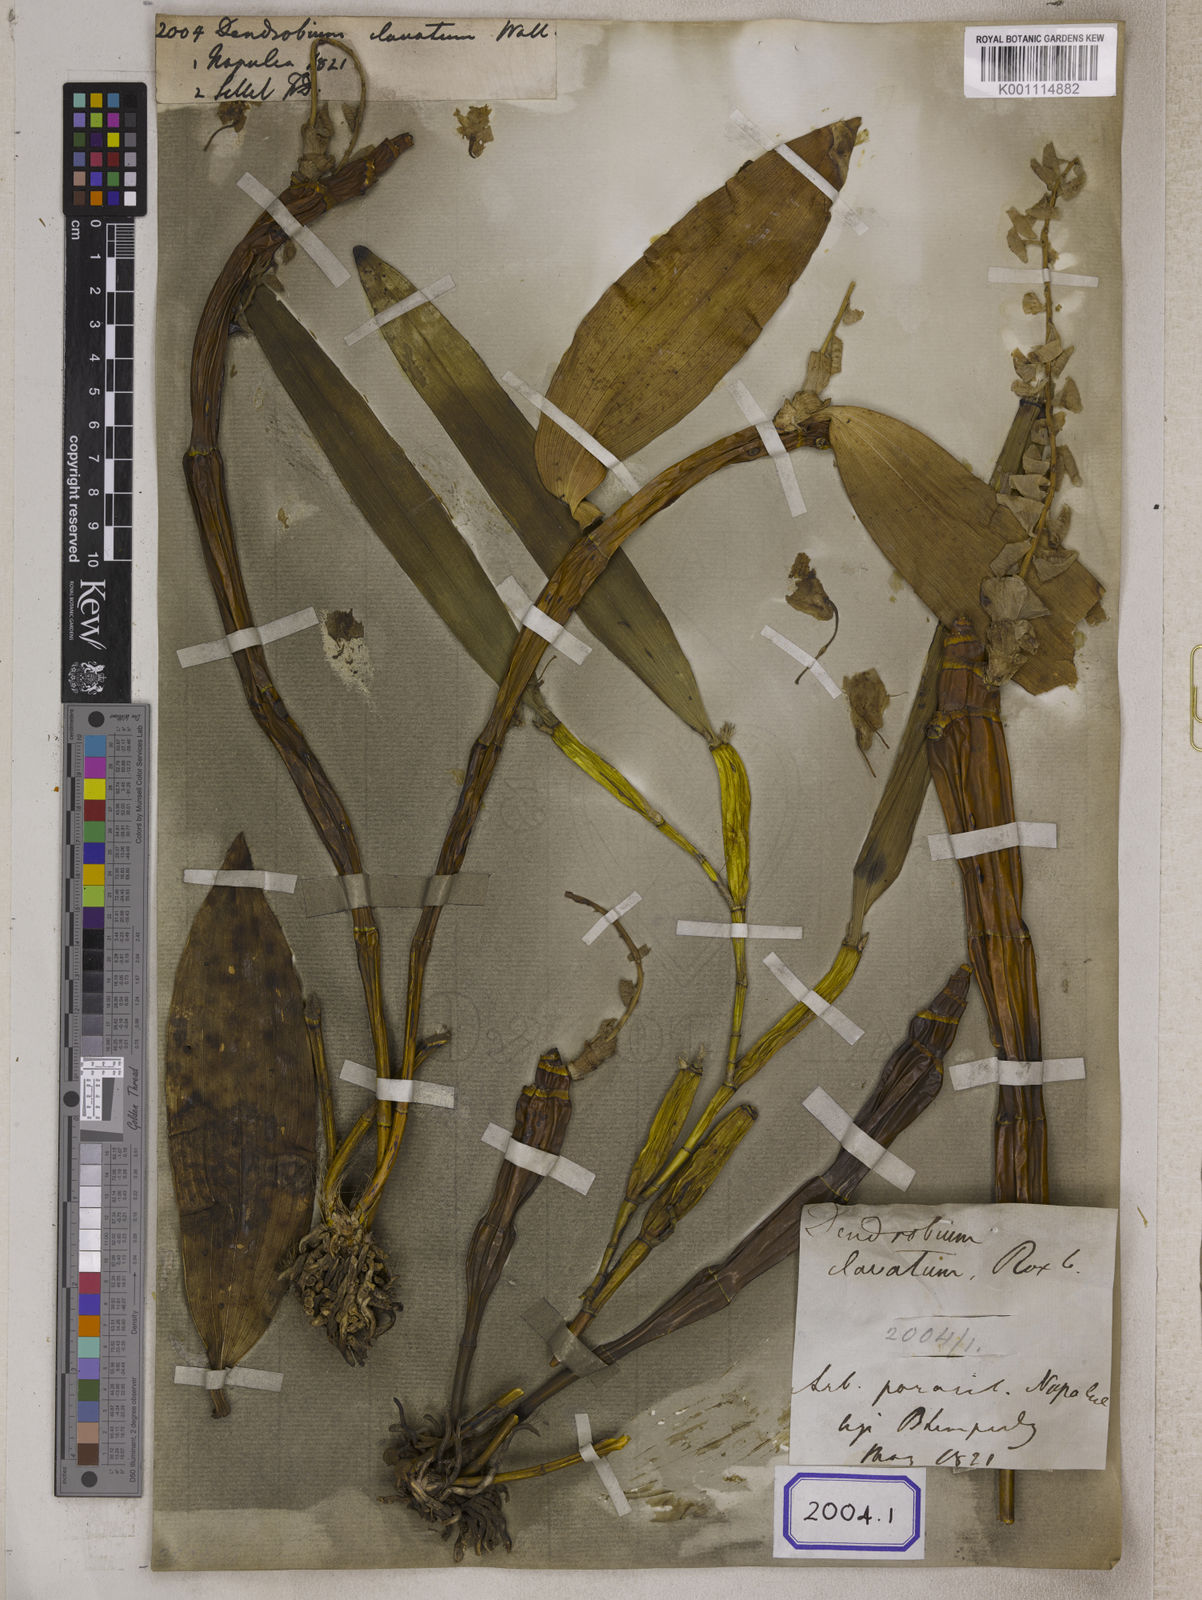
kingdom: Plantae
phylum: Tracheophyta
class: Liliopsida
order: Asparagales
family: Orchidaceae
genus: Dendrobium
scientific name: Dendrobium
